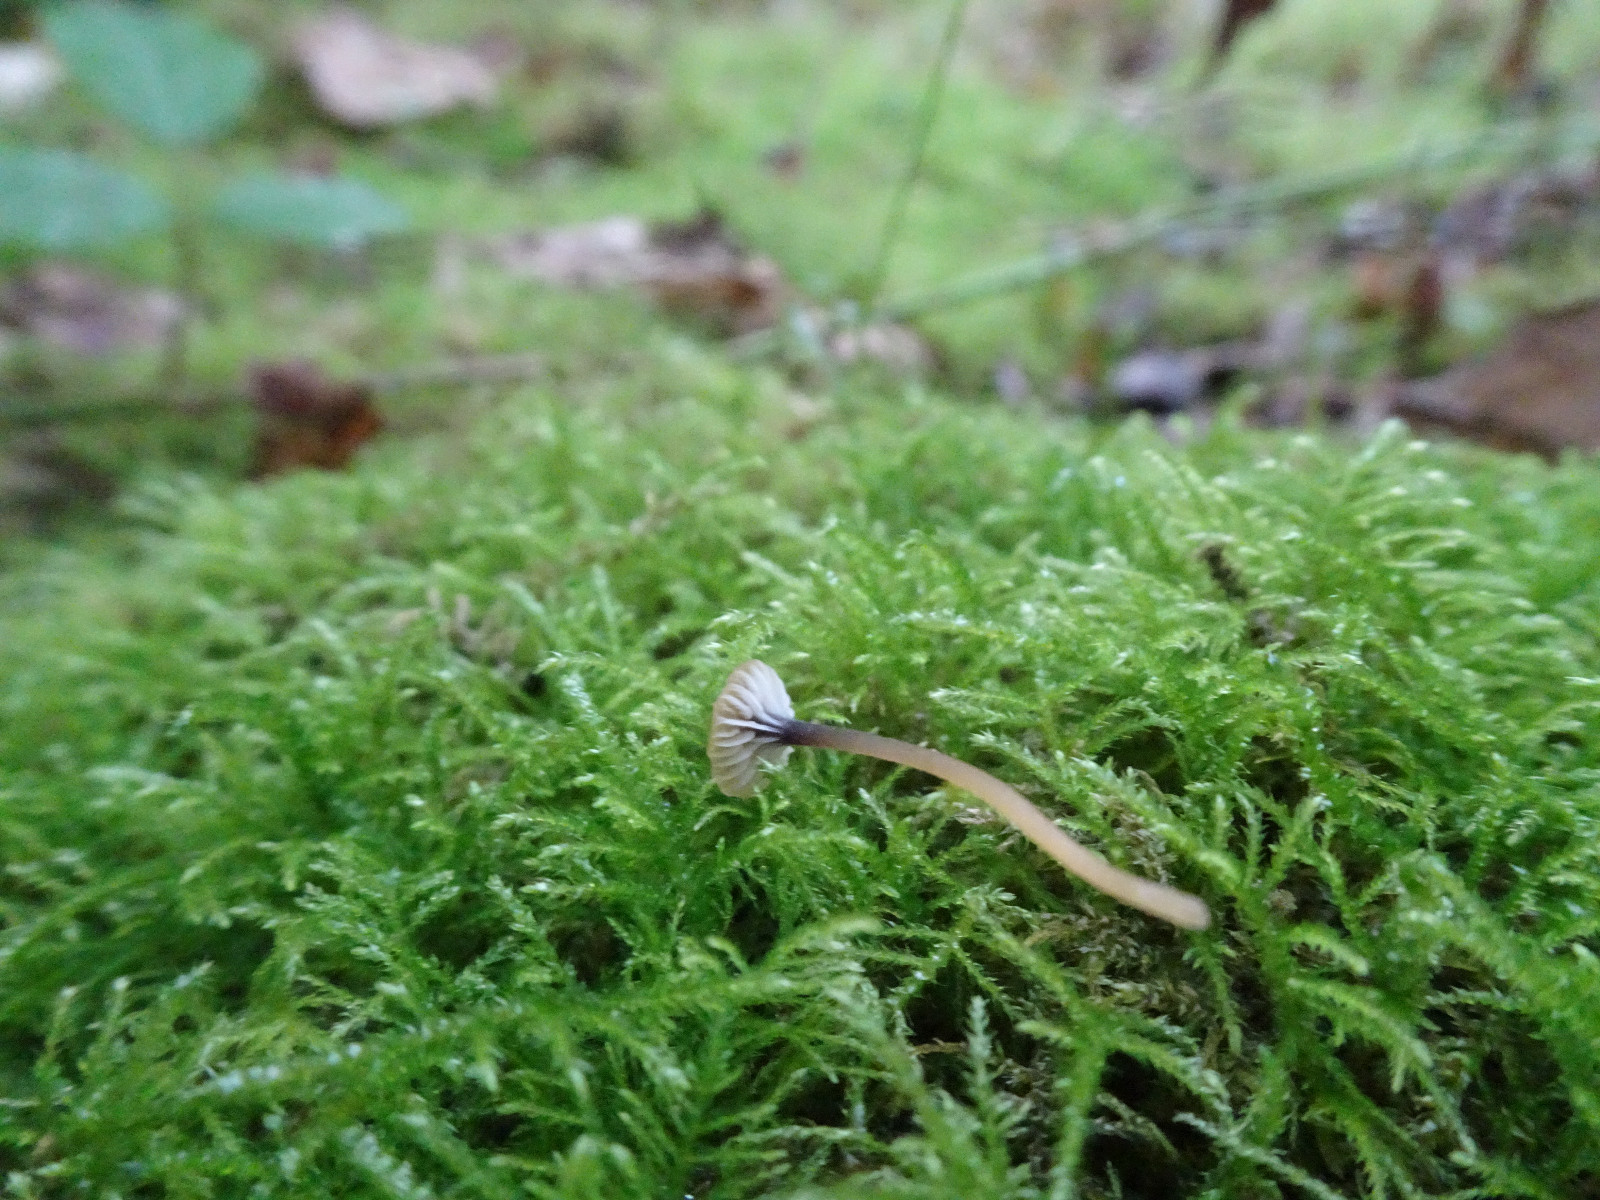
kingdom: Fungi
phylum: Basidiomycota
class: Agaricomycetes
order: Hymenochaetales
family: Rickenellaceae
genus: Rickenella
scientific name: Rickenella swartzii
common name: finstokket mosnavlehat
